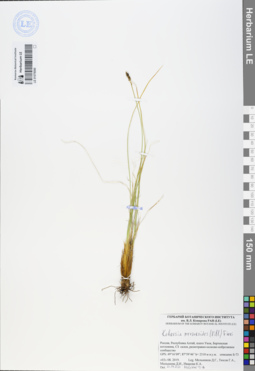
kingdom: Plantae
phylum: Tracheophyta
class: Liliopsida
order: Poales
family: Cyperaceae
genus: Carex
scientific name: Carex myosuroides
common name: Bellard's bog sedge
